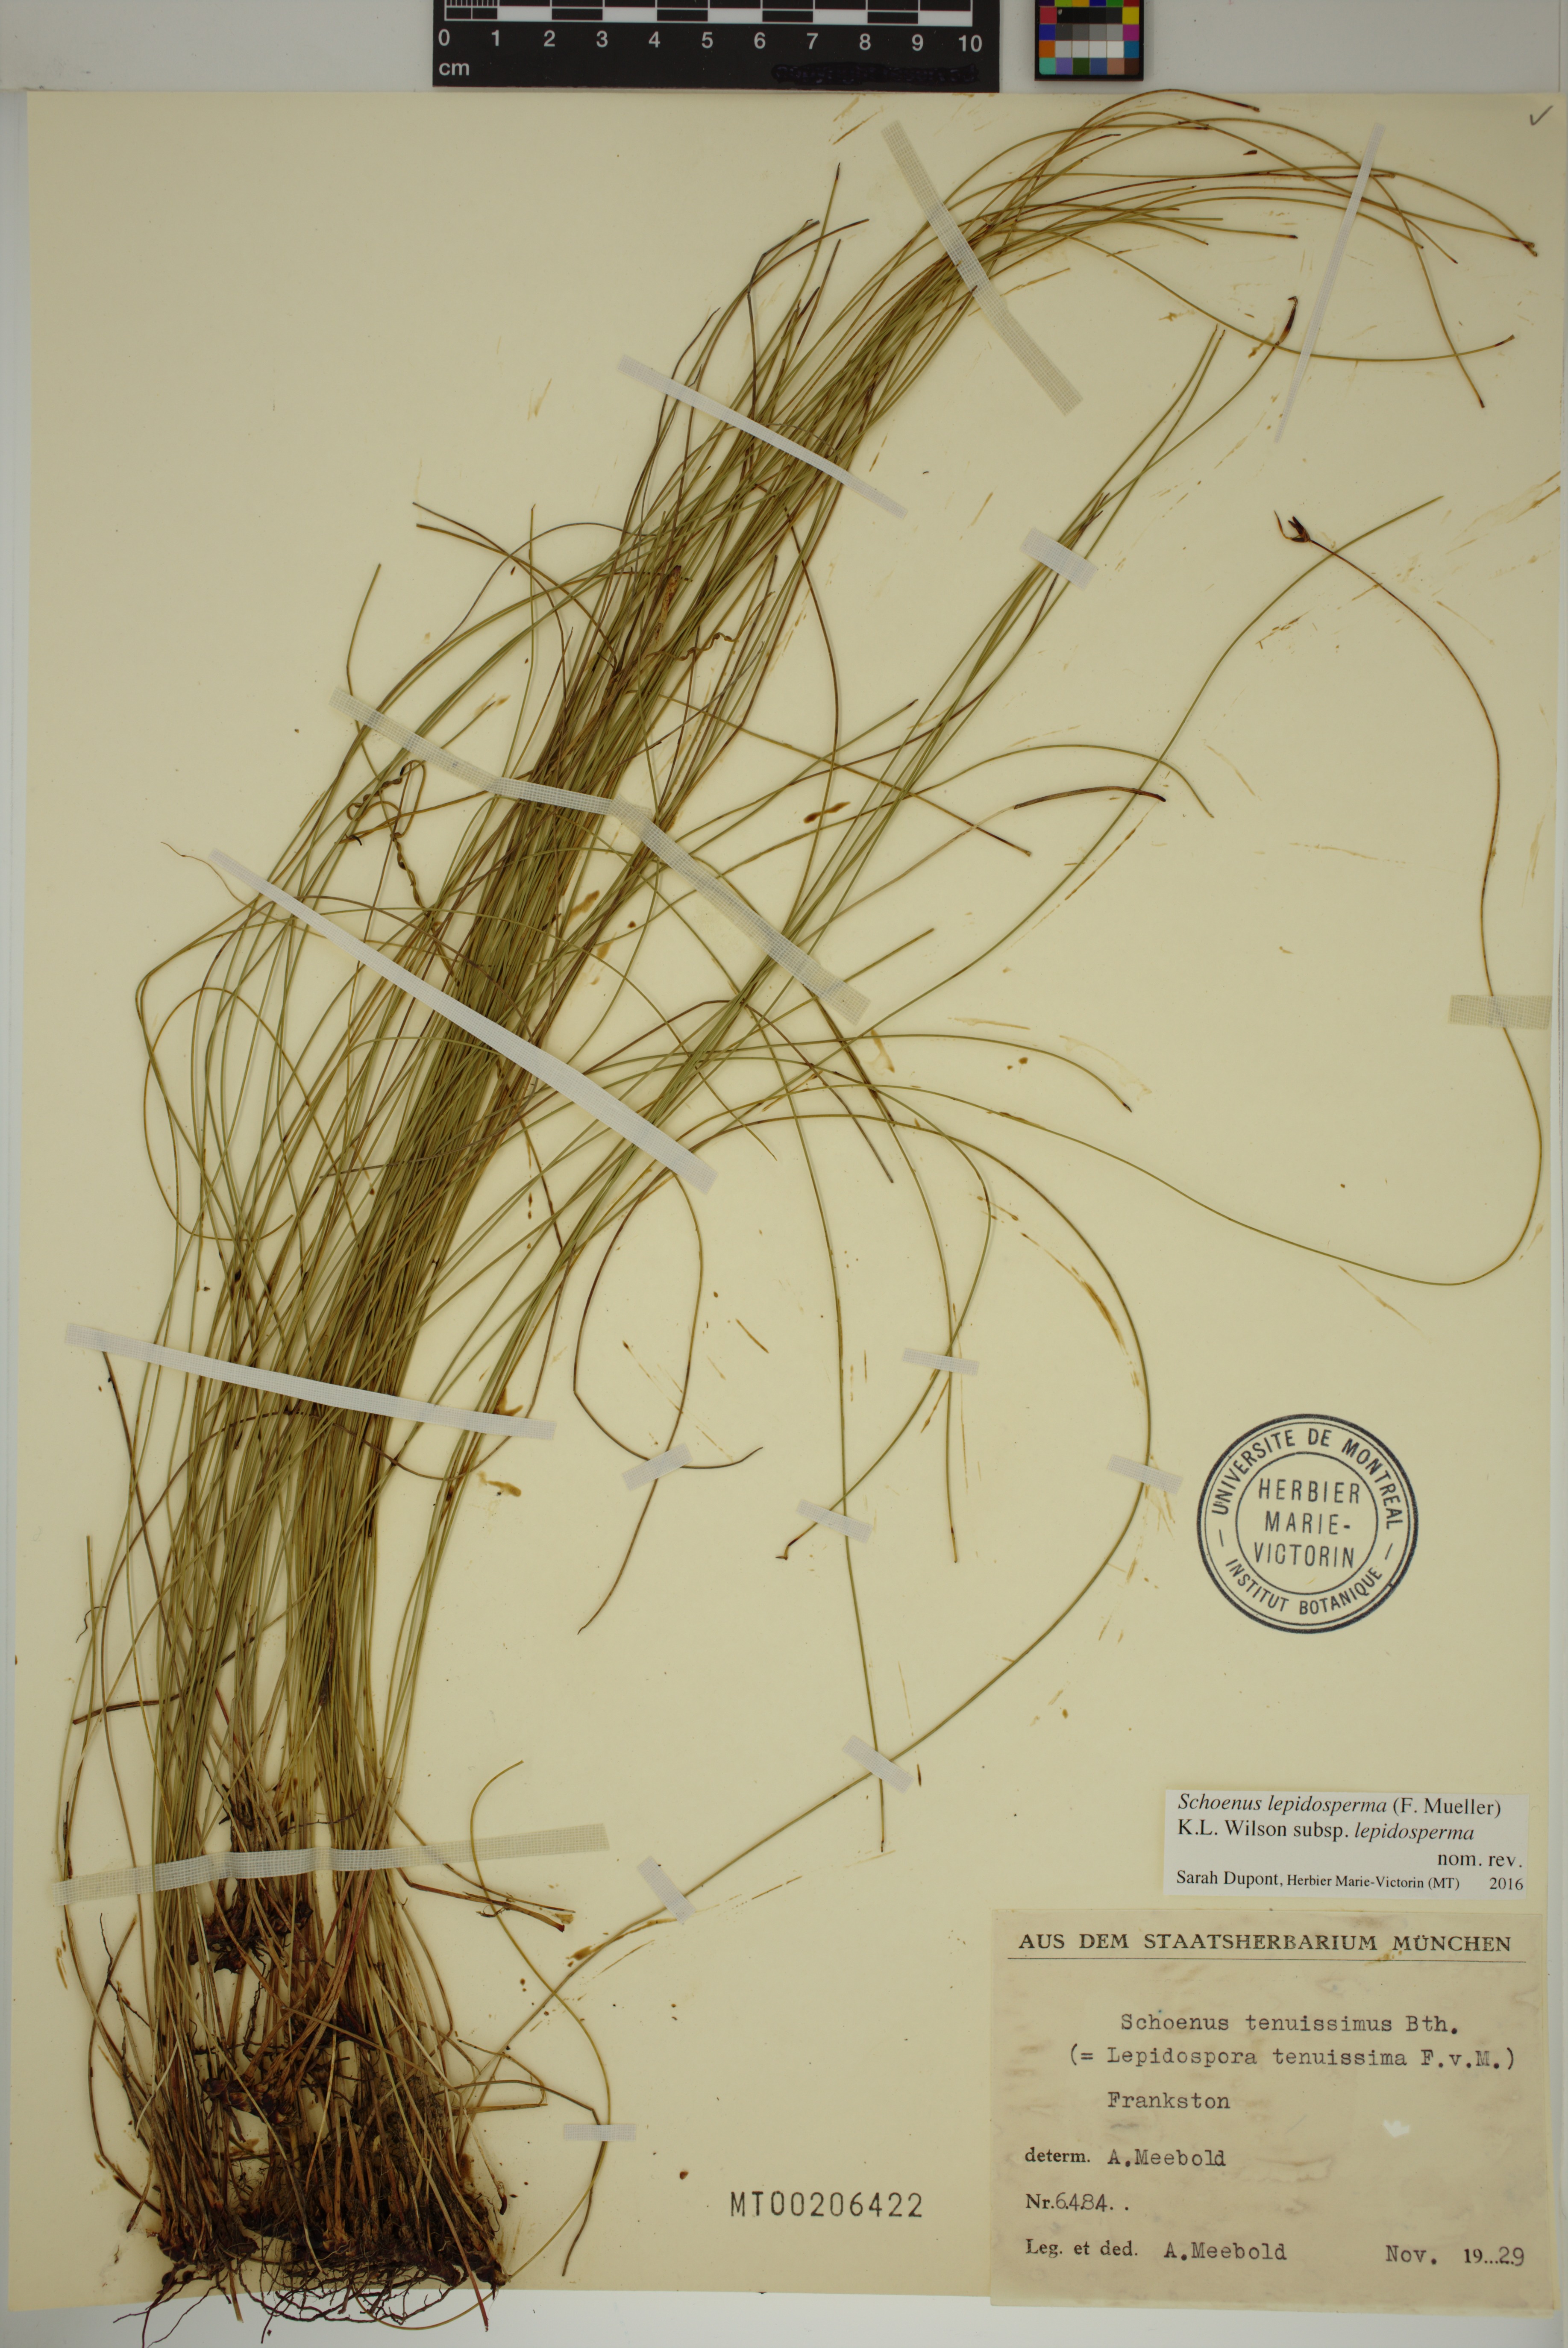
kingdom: Plantae
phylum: Tracheophyta
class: Liliopsida
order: Poales
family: Cyperaceae
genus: Schoenus
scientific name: Schoenus lepidosperma
